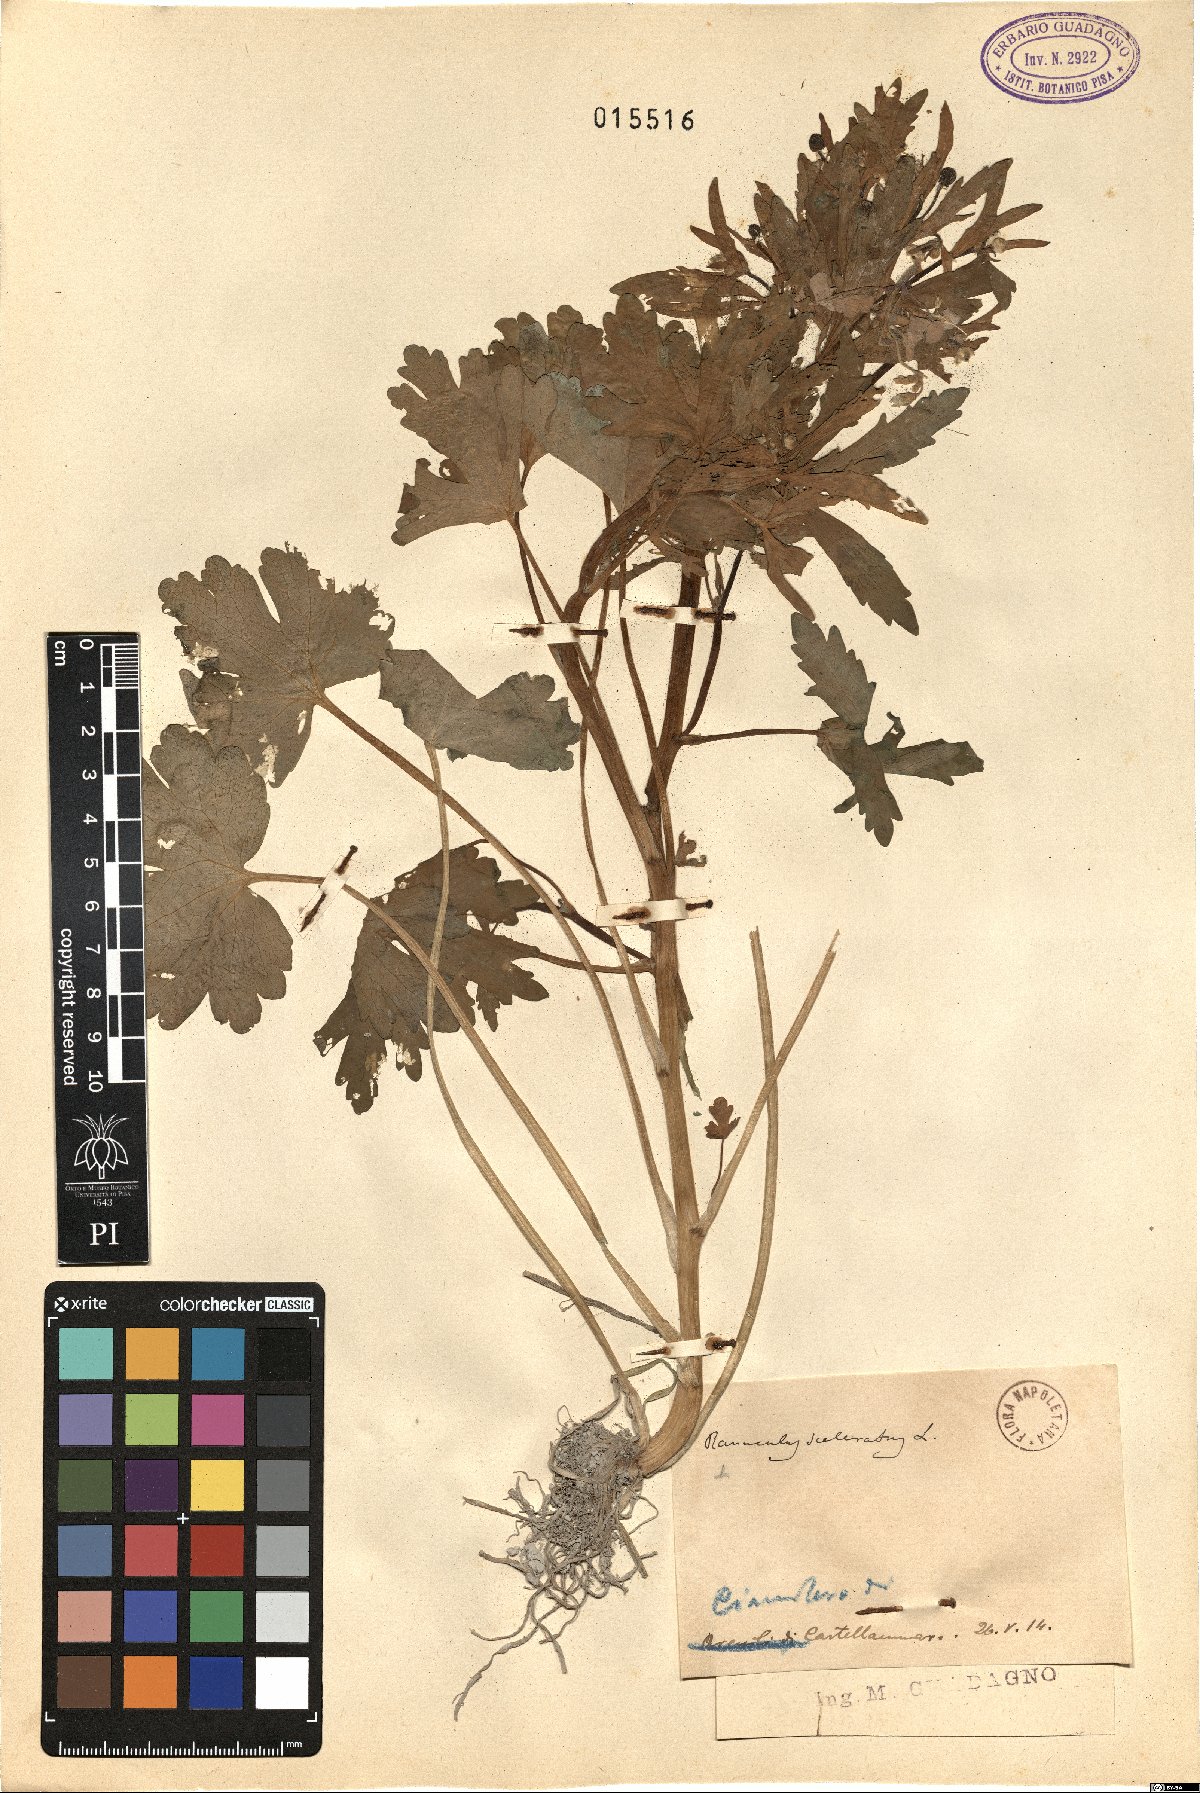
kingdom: Plantae
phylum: Tracheophyta
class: Magnoliopsida
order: Ranunculales
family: Ranunculaceae
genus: Ranunculus
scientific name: Ranunculus sceleratus
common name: Celery-leaved buttercup
